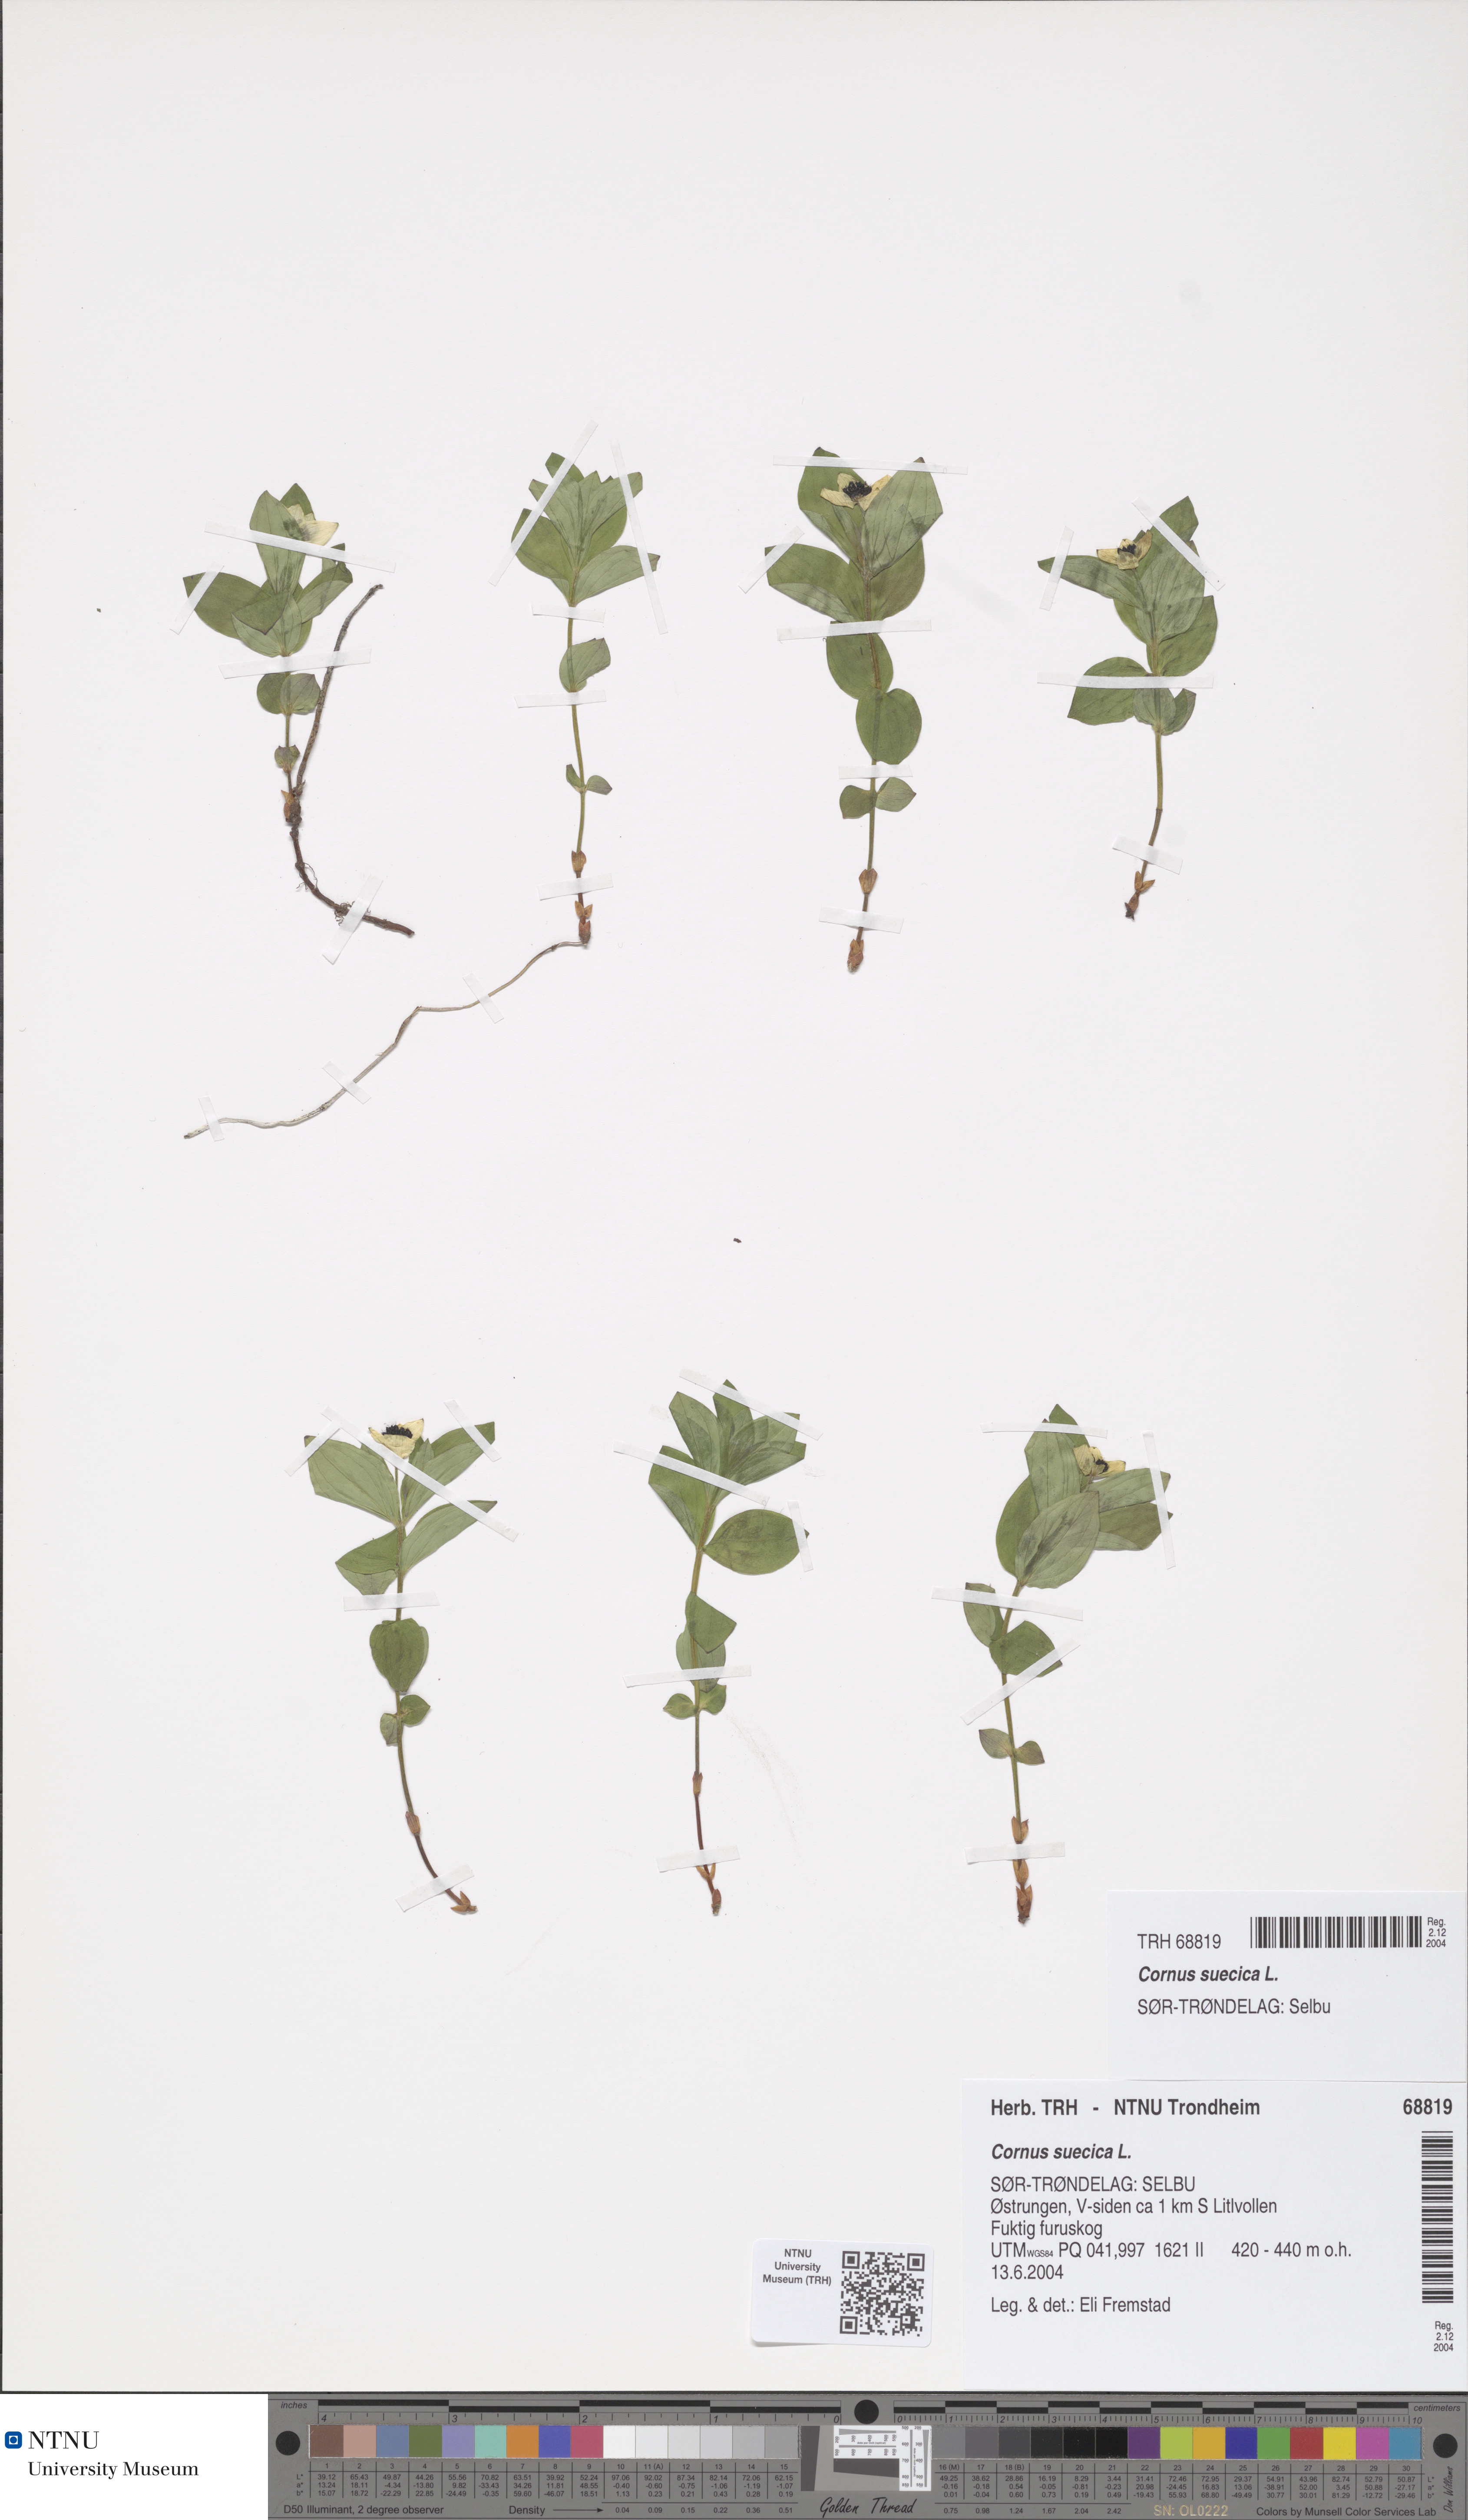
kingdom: Plantae
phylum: Tracheophyta
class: Magnoliopsida
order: Cornales
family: Cornaceae
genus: Cornus
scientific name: Cornus suecica
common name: Dwarf cornel
